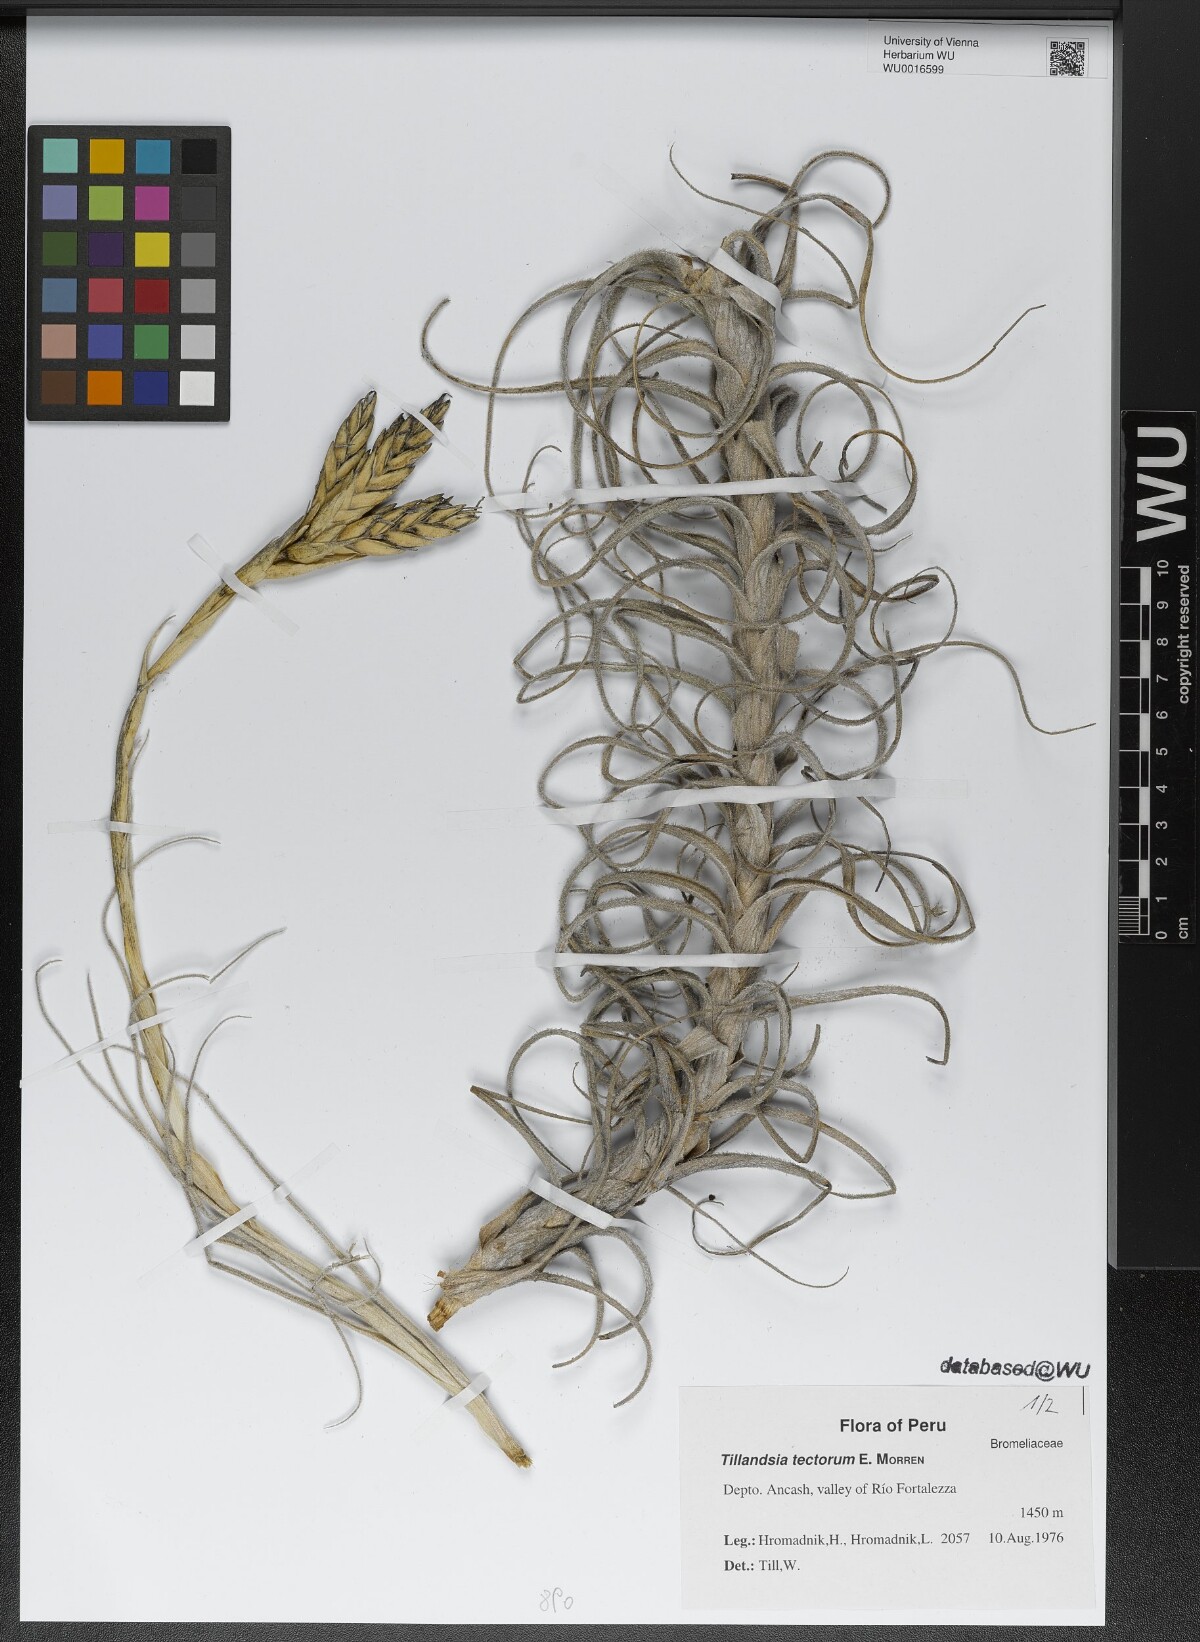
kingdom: Plantae
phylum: Tracheophyta
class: Liliopsida
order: Poales
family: Bromeliaceae
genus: Tillandsia
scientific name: Tillandsia tectorum
